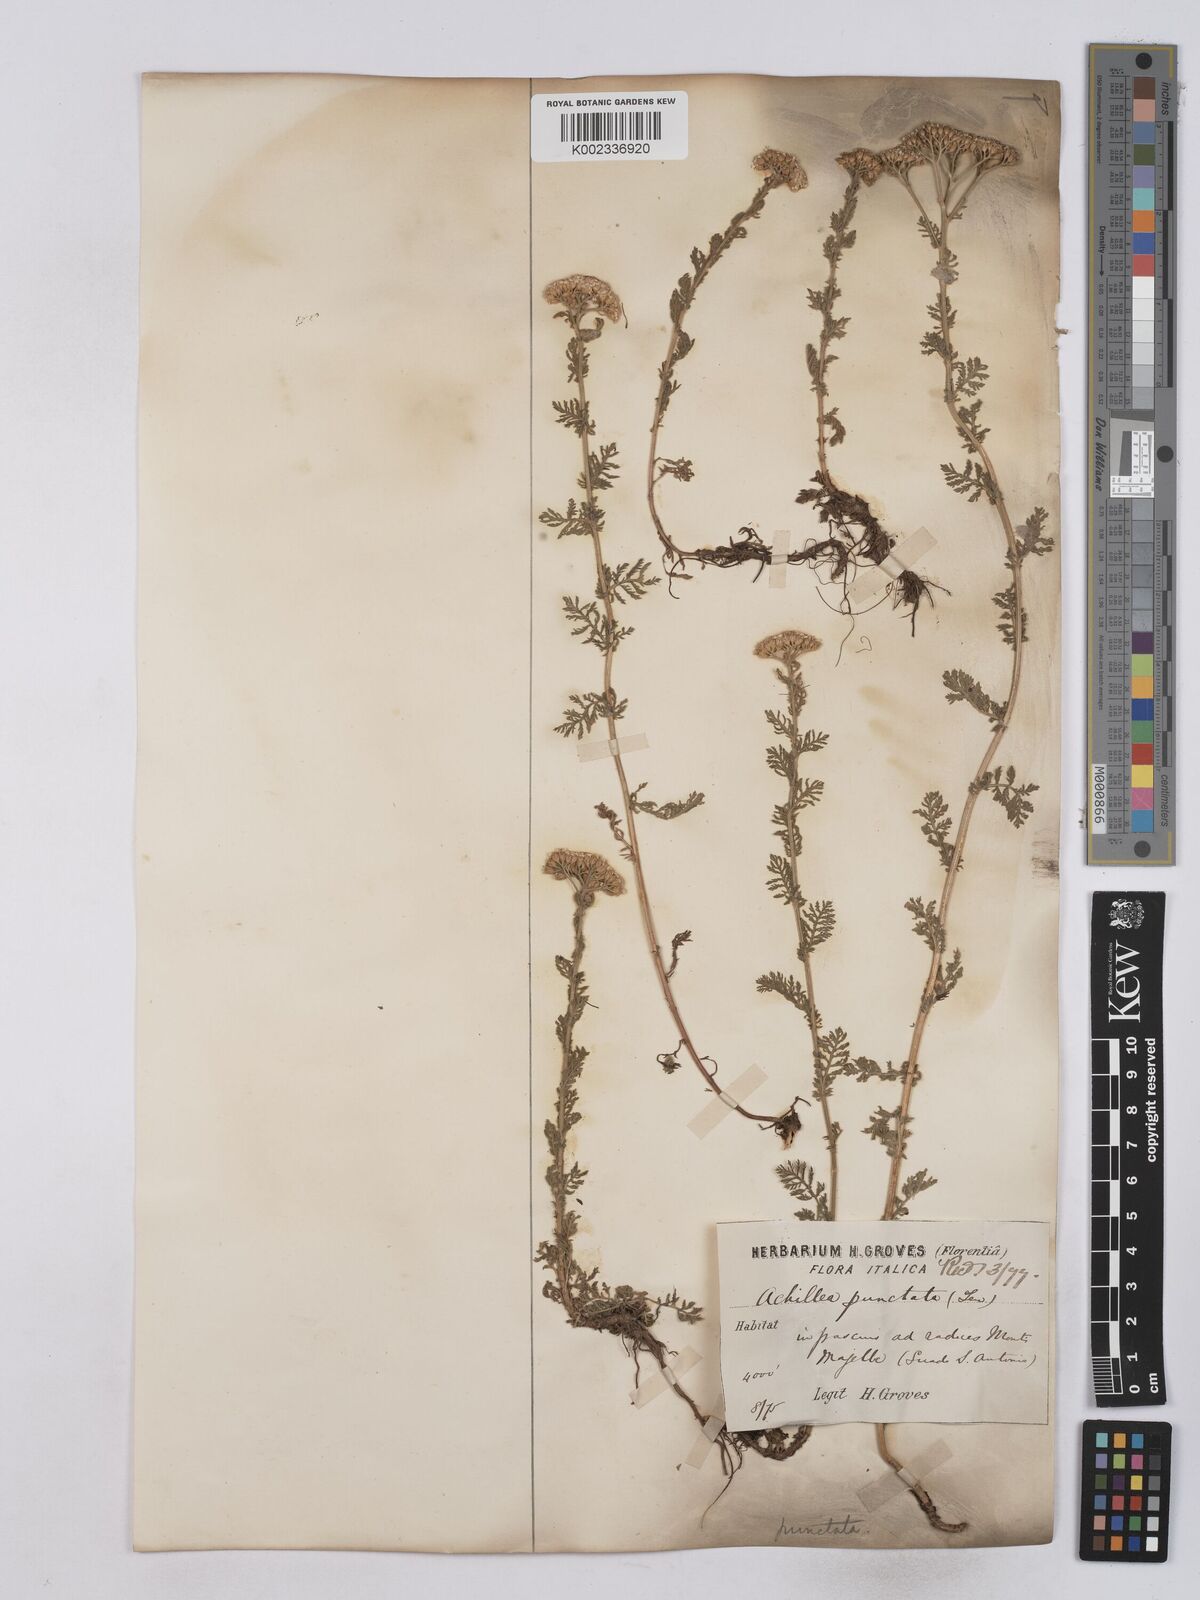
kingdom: Plantae
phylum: Tracheophyta
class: Magnoliopsida
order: Asterales
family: Asteraceae
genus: Achillea
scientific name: Achillea odorata
